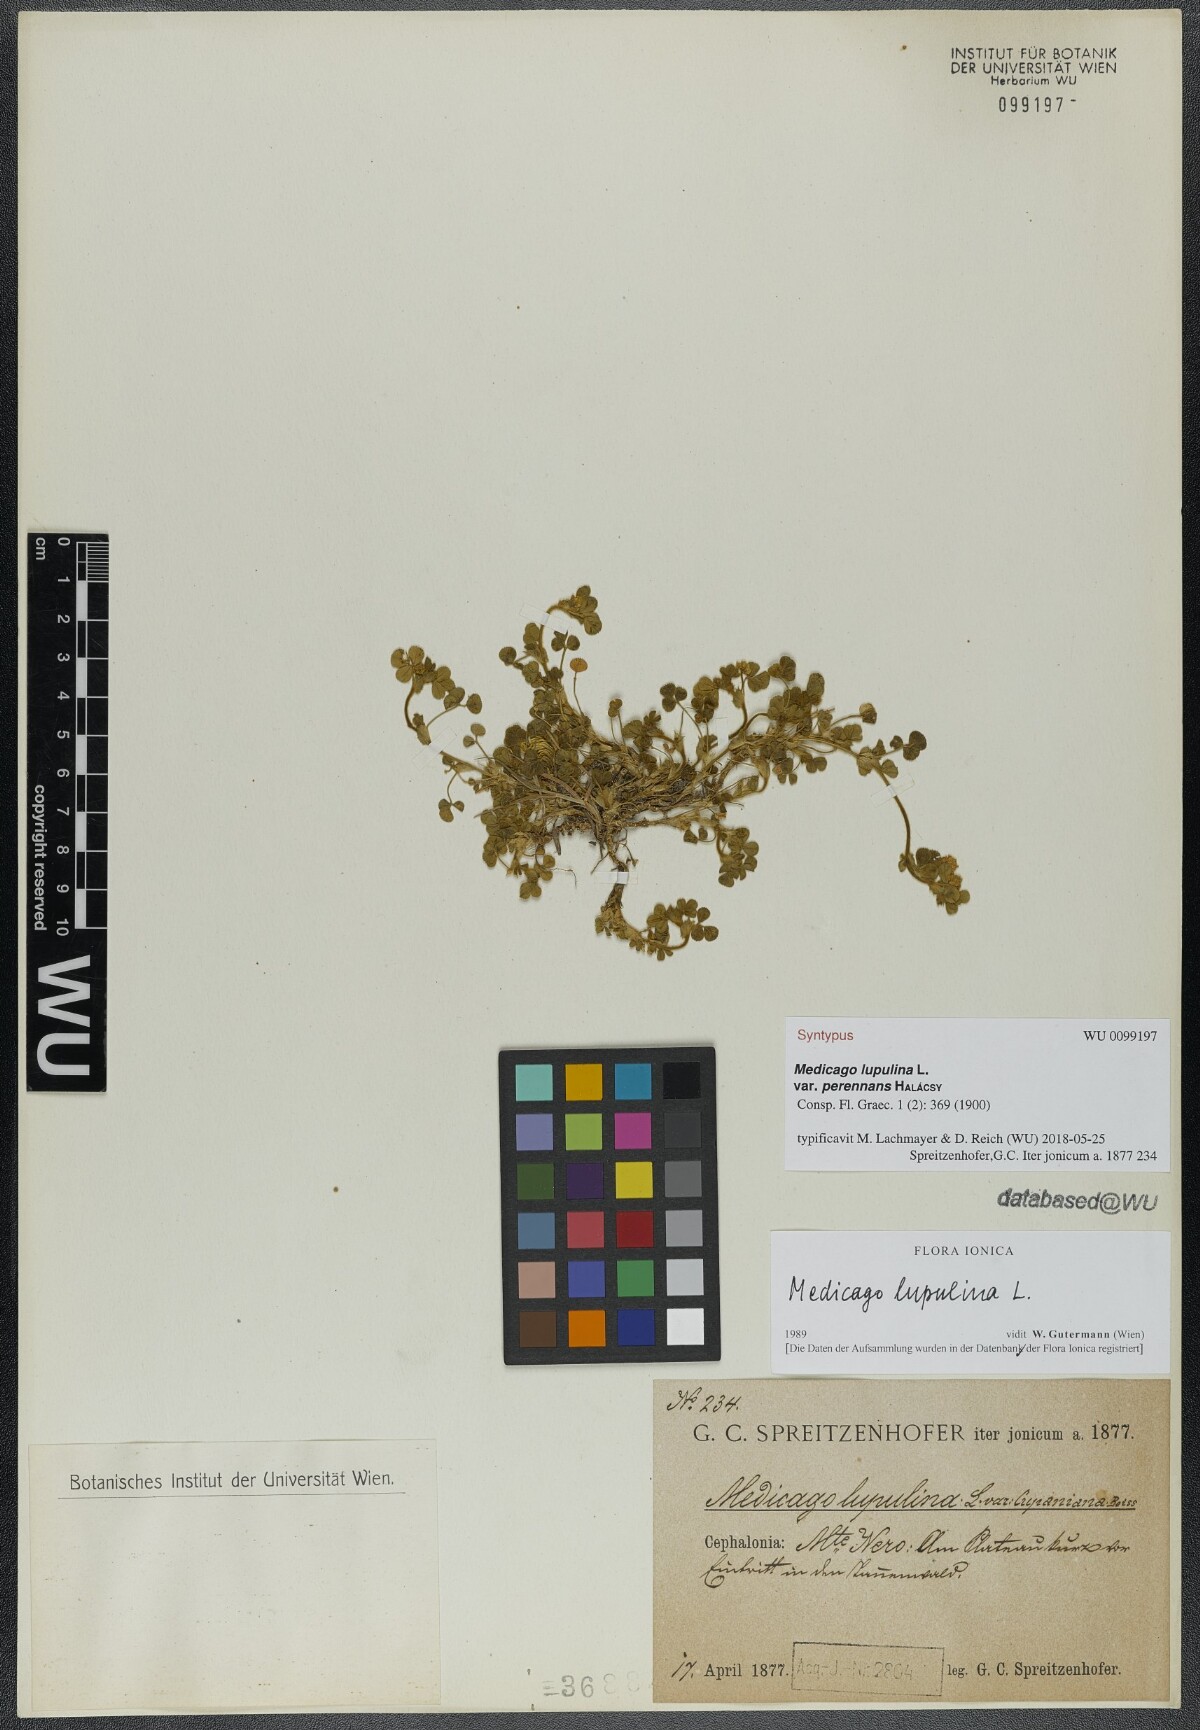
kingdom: Plantae
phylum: Tracheophyta
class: Magnoliopsida
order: Fabales
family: Fabaceae
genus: Medicago
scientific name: Medicago lupulina
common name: Black medick
